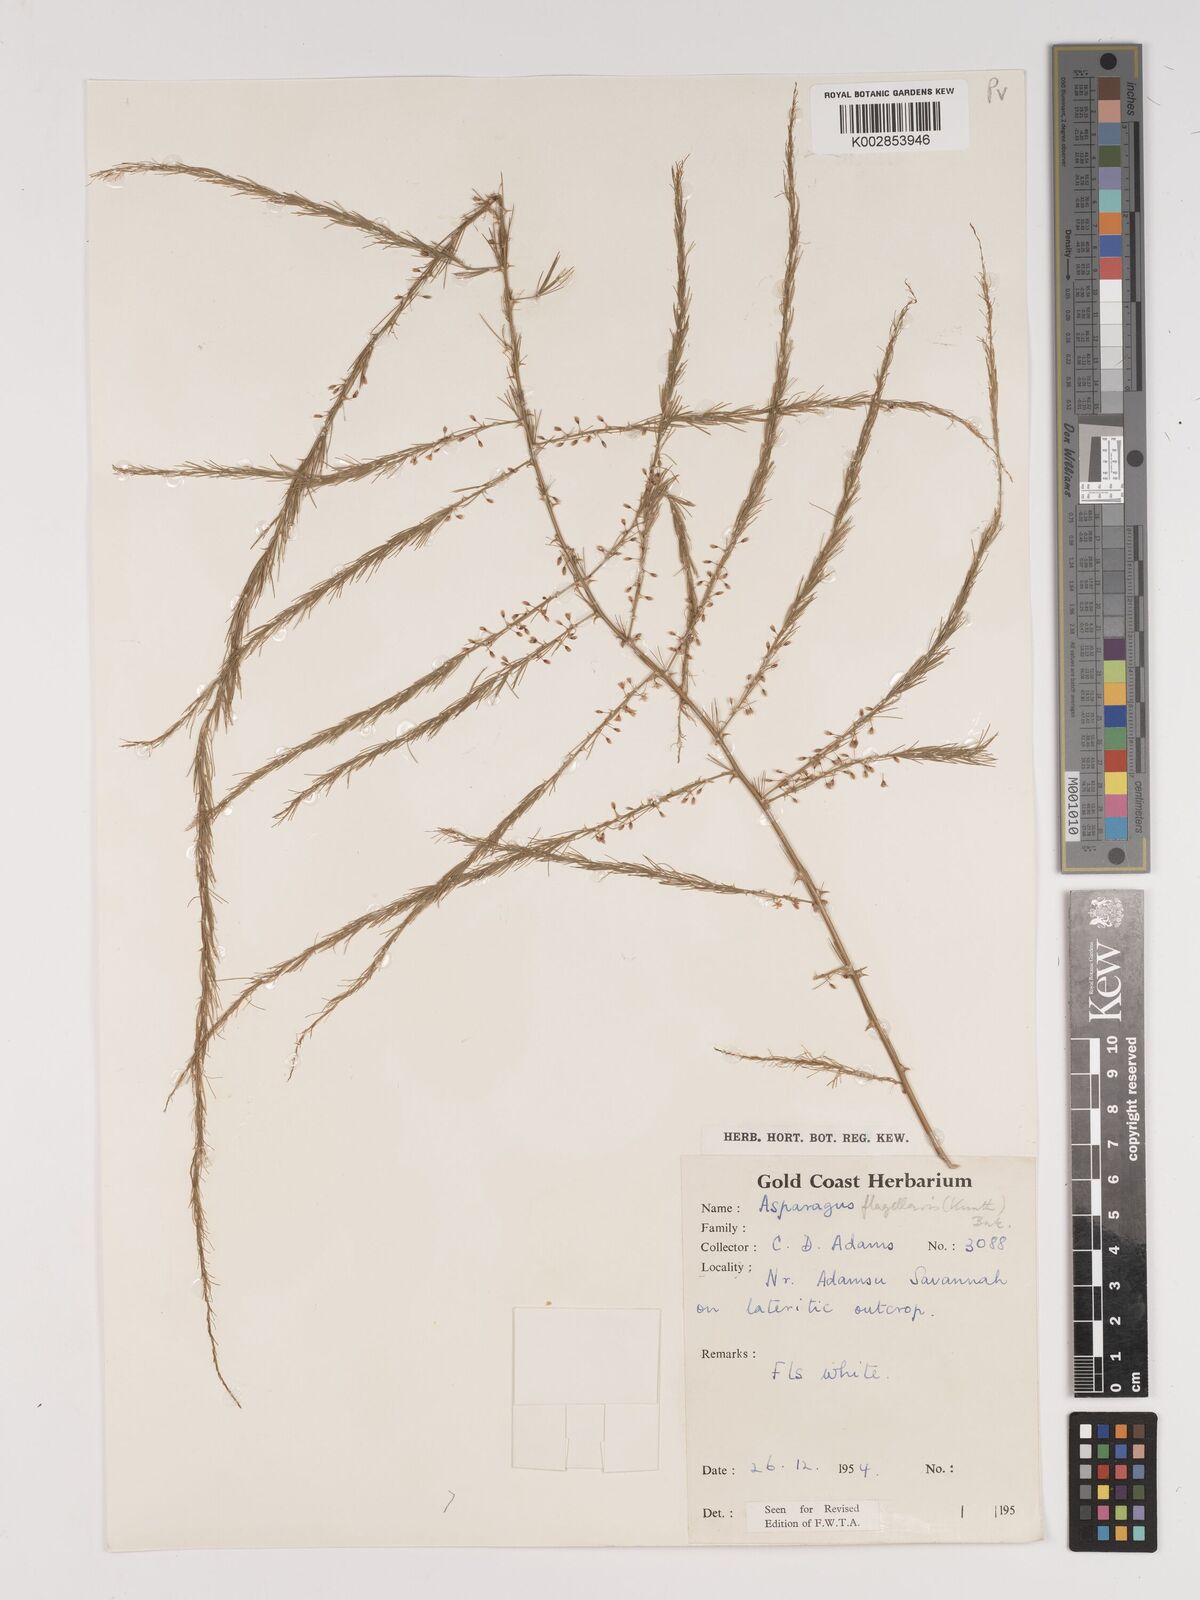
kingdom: Plantae
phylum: Tracheophyta
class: Liliopsida
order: Asparagales
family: Asparagaceae
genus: Asparagus
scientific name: Asparagus flagellaris
